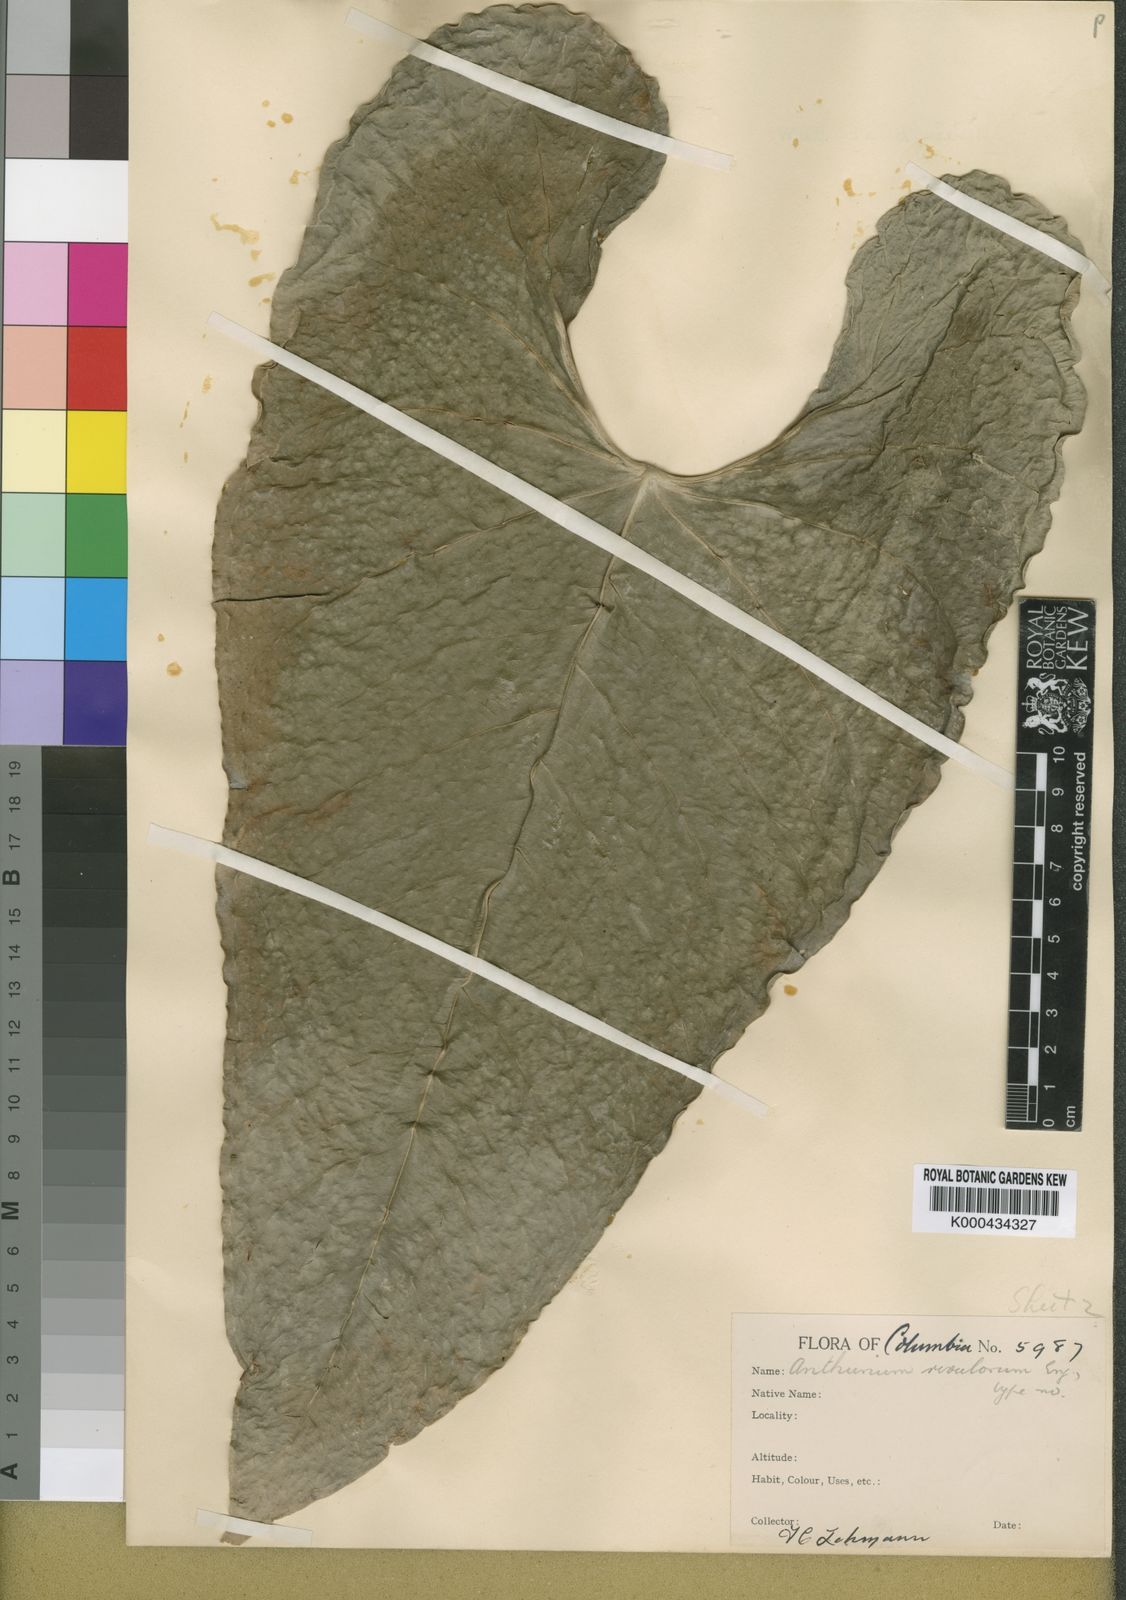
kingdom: Plantae
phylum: Tracheophyta
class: Liliopsida
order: Alismatales
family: Araceae
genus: Anthurium
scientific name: Anthurium sanguineum
